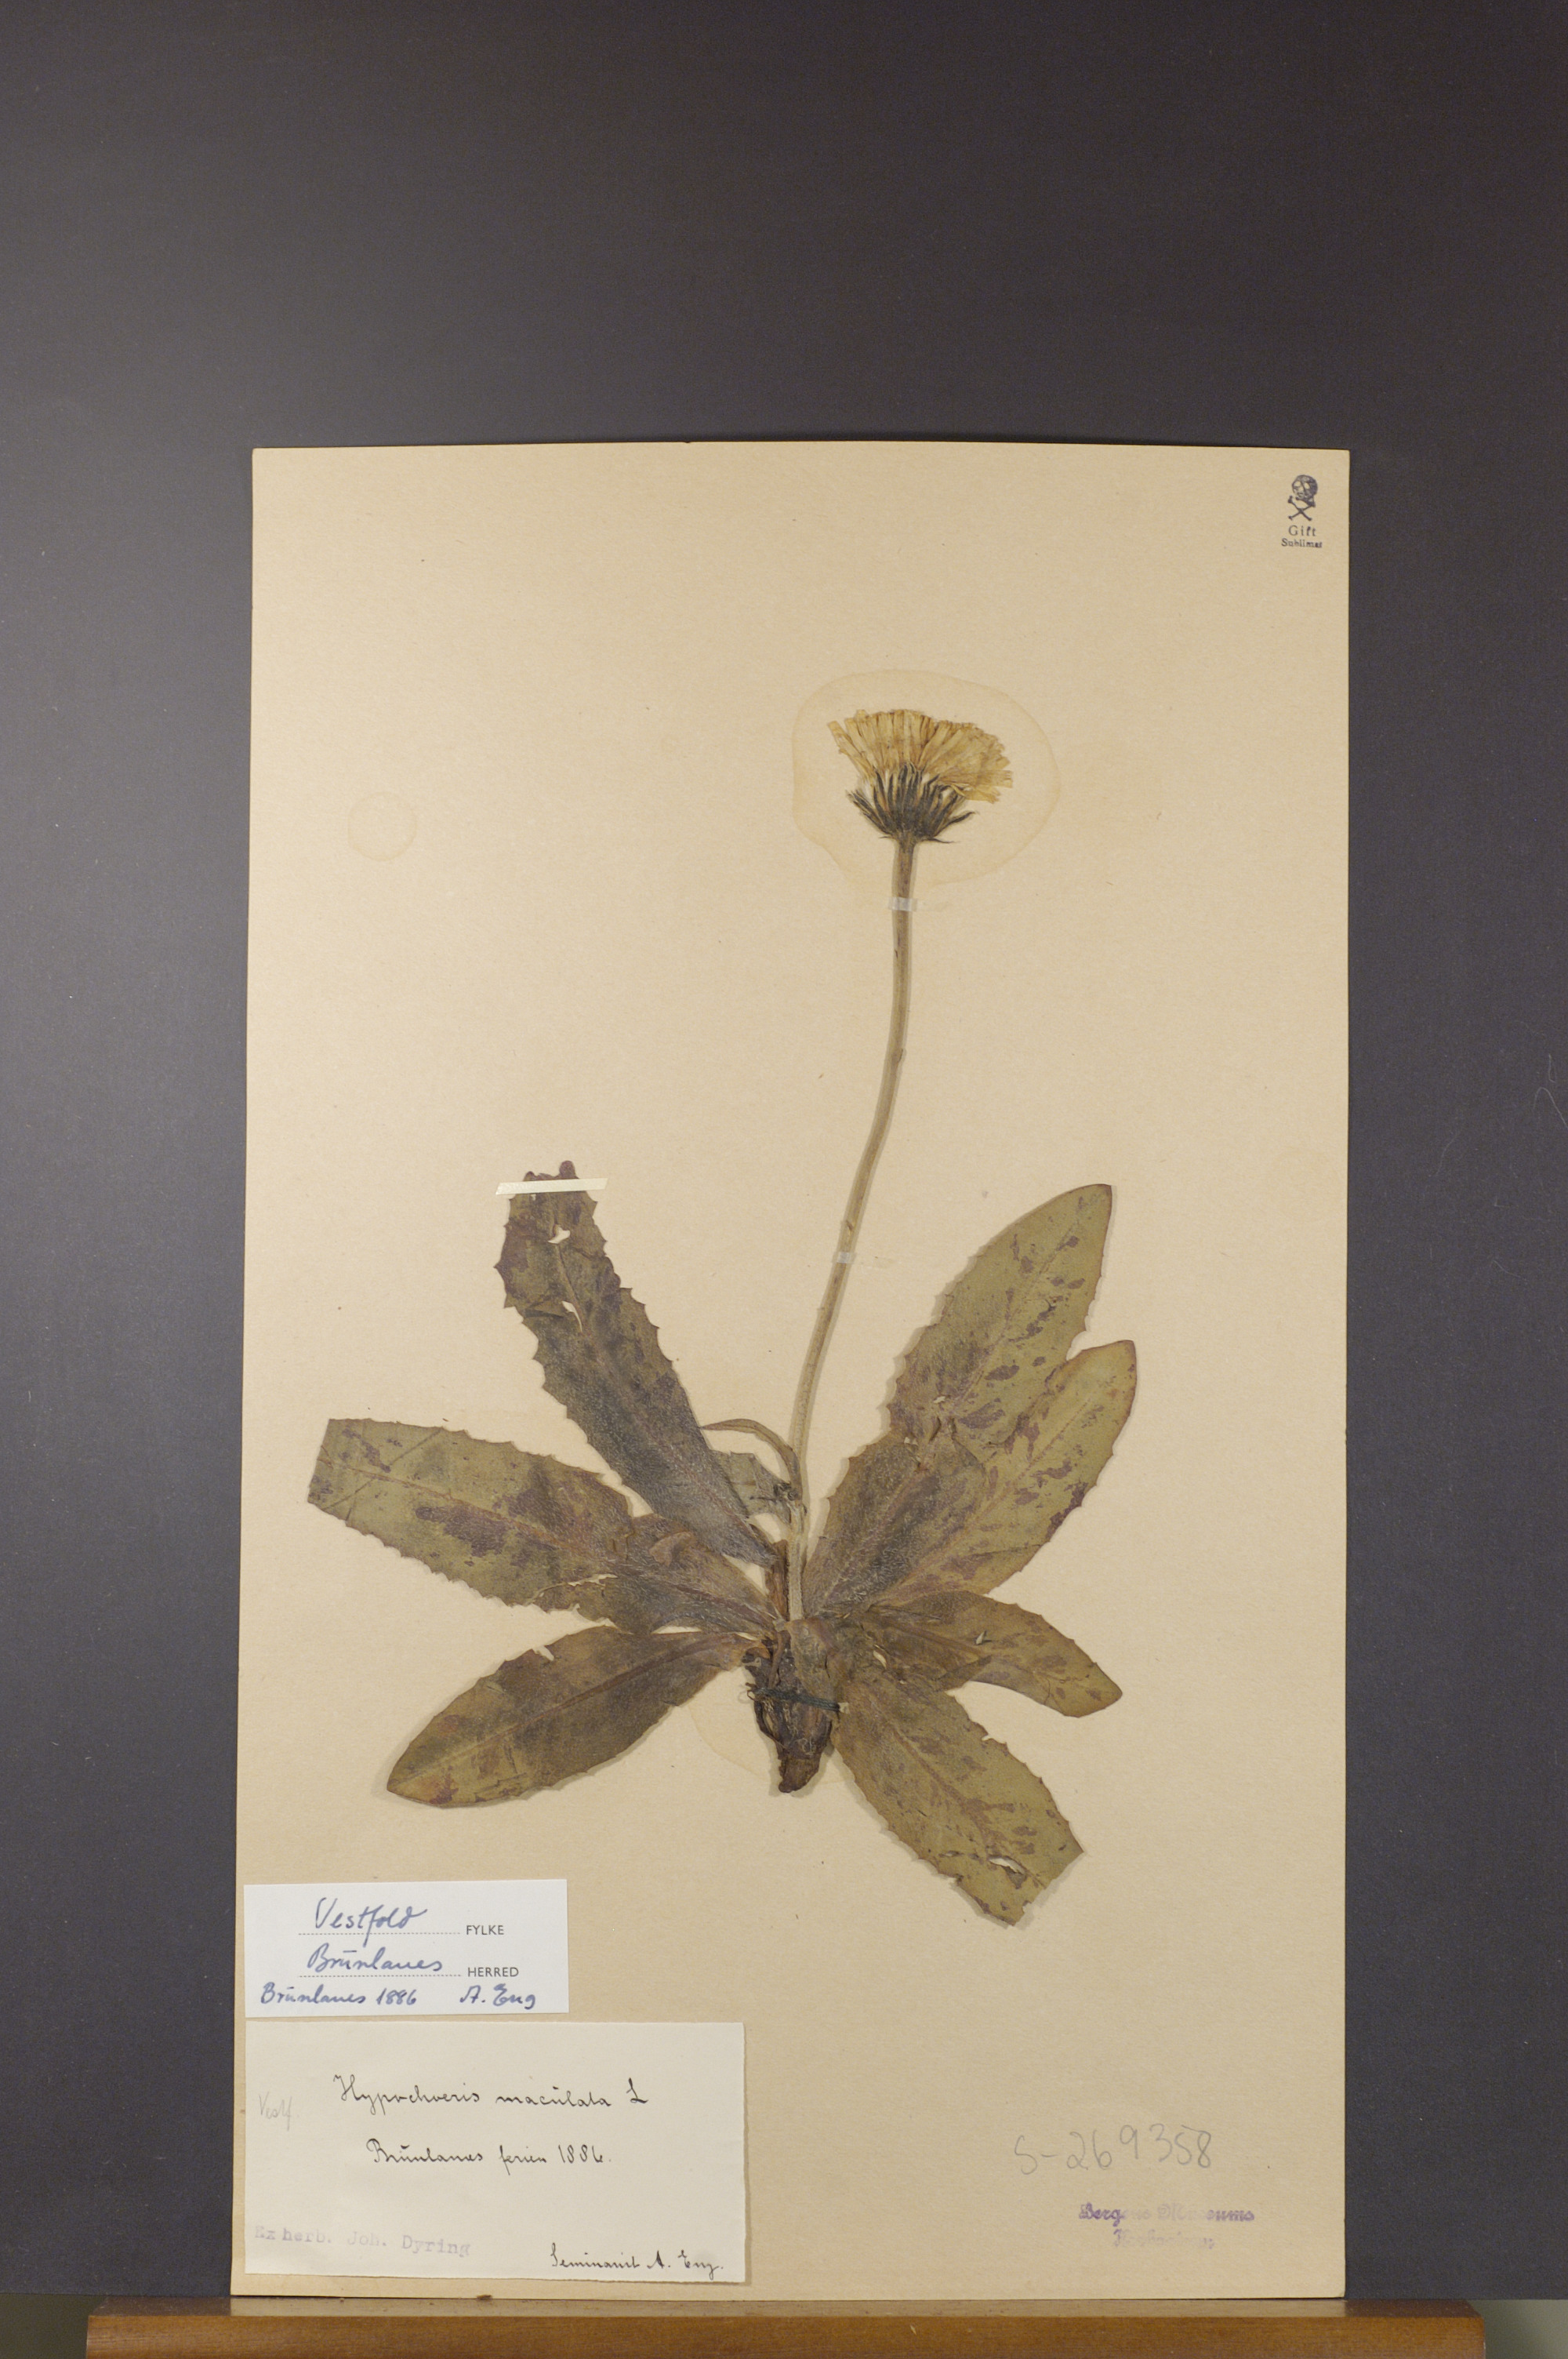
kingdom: Plantae
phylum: Tracheophyta
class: Magnoliopsida
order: Asterales
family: Asteraceae
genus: Trommsdorffia
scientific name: Trommsdorffia maculata
